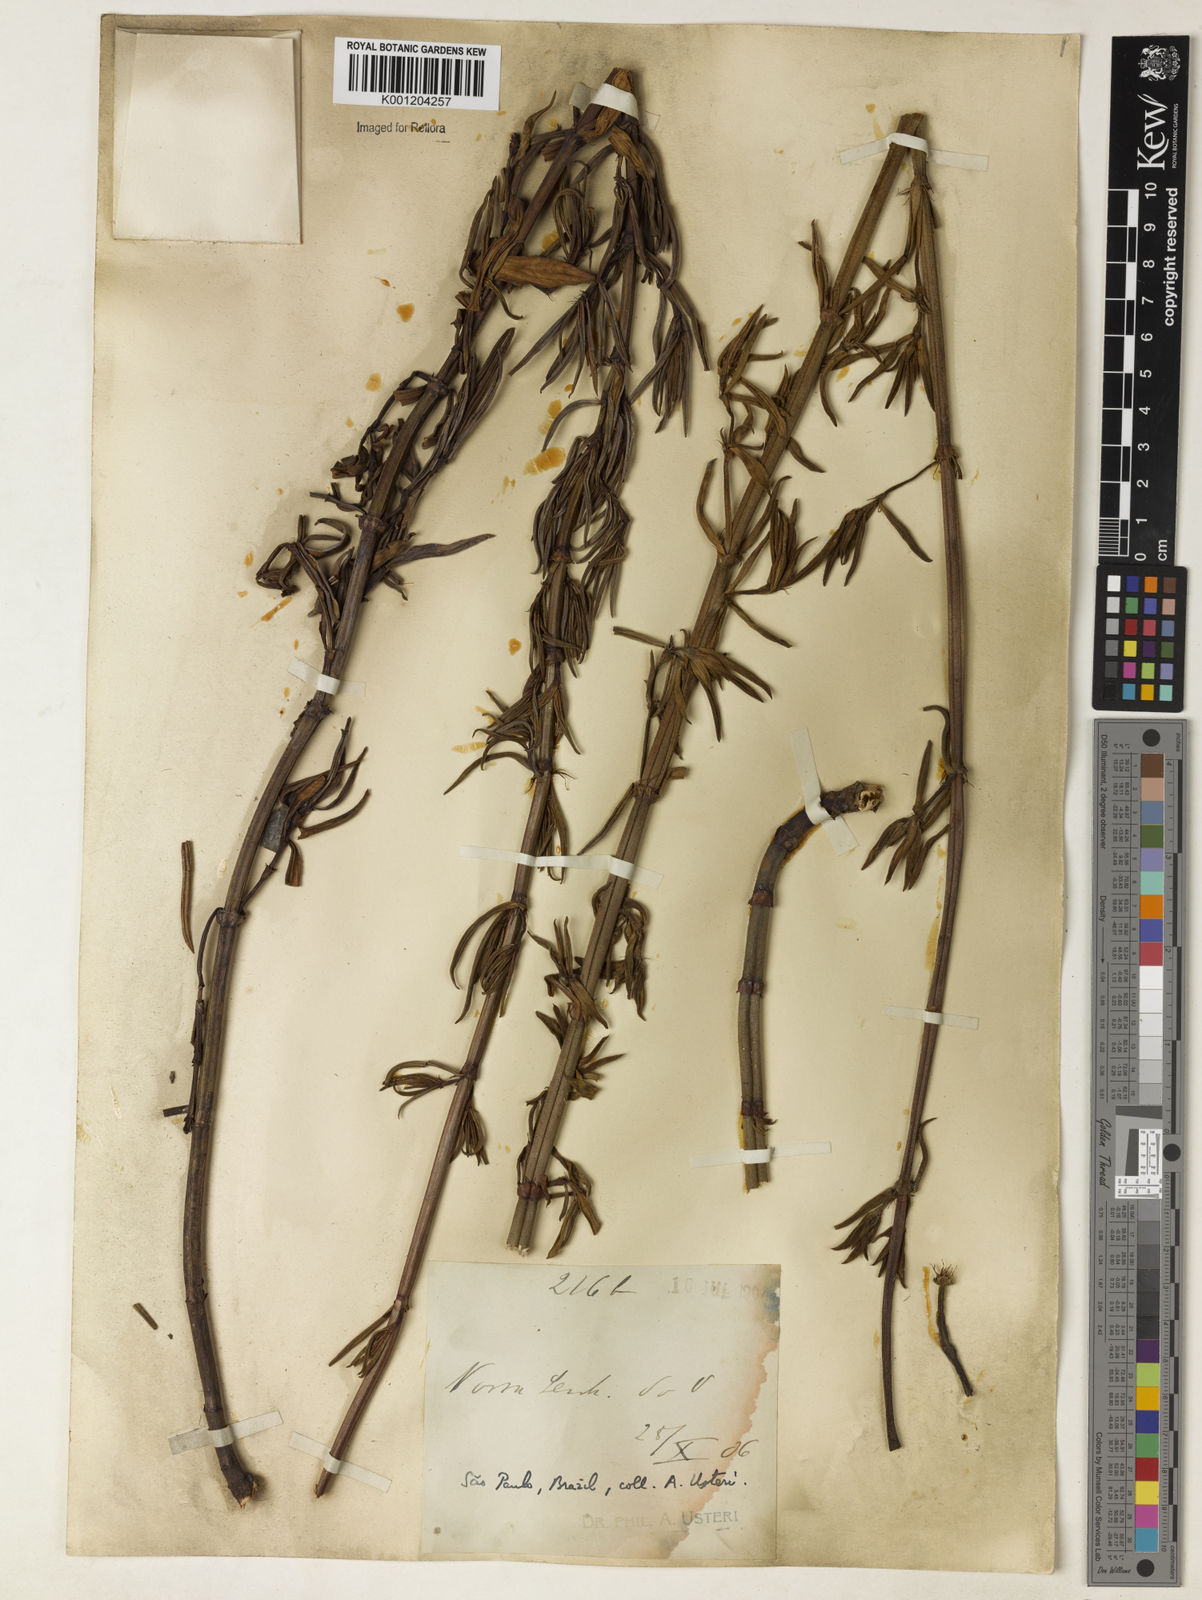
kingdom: Plantae
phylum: Tracheophyta
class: Magnoliopsida
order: Gentianales
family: Rubiaceae
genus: Galianthe
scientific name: Galianthe valerianoides
